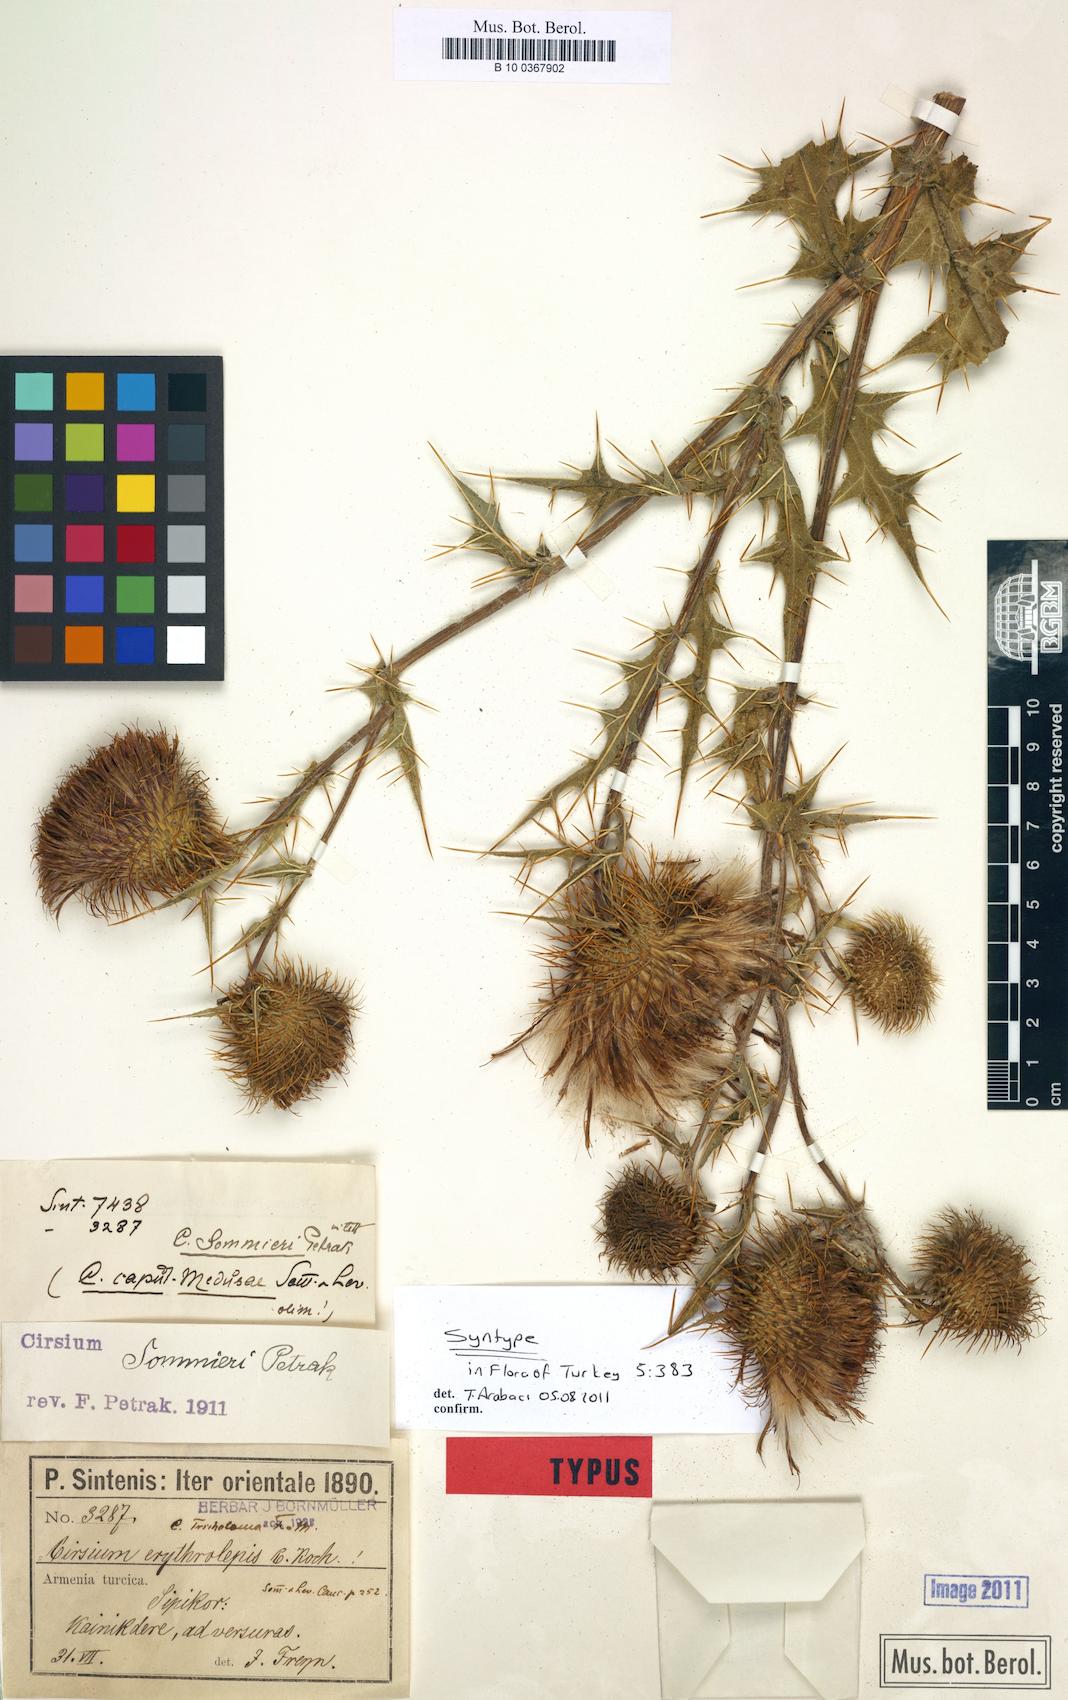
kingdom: Plantae
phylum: Tracheophyta
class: Magnoliopsida
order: Asterales
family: Asteraceae
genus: Lophiolepis
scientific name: Lophiolepis sommieri
